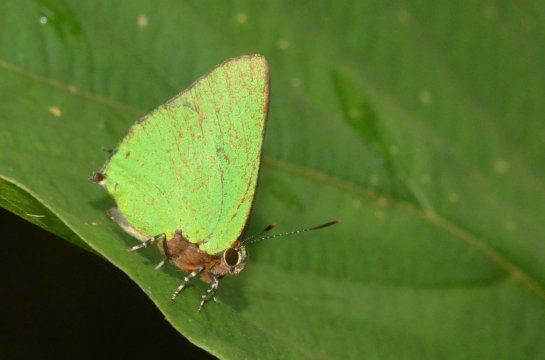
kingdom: Animalia
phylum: Arthropoda
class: Insecta
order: Lepidoptera
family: Lycaenidae
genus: Thecla
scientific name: Thecla amyntor
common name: Amyntor Greenstreak
